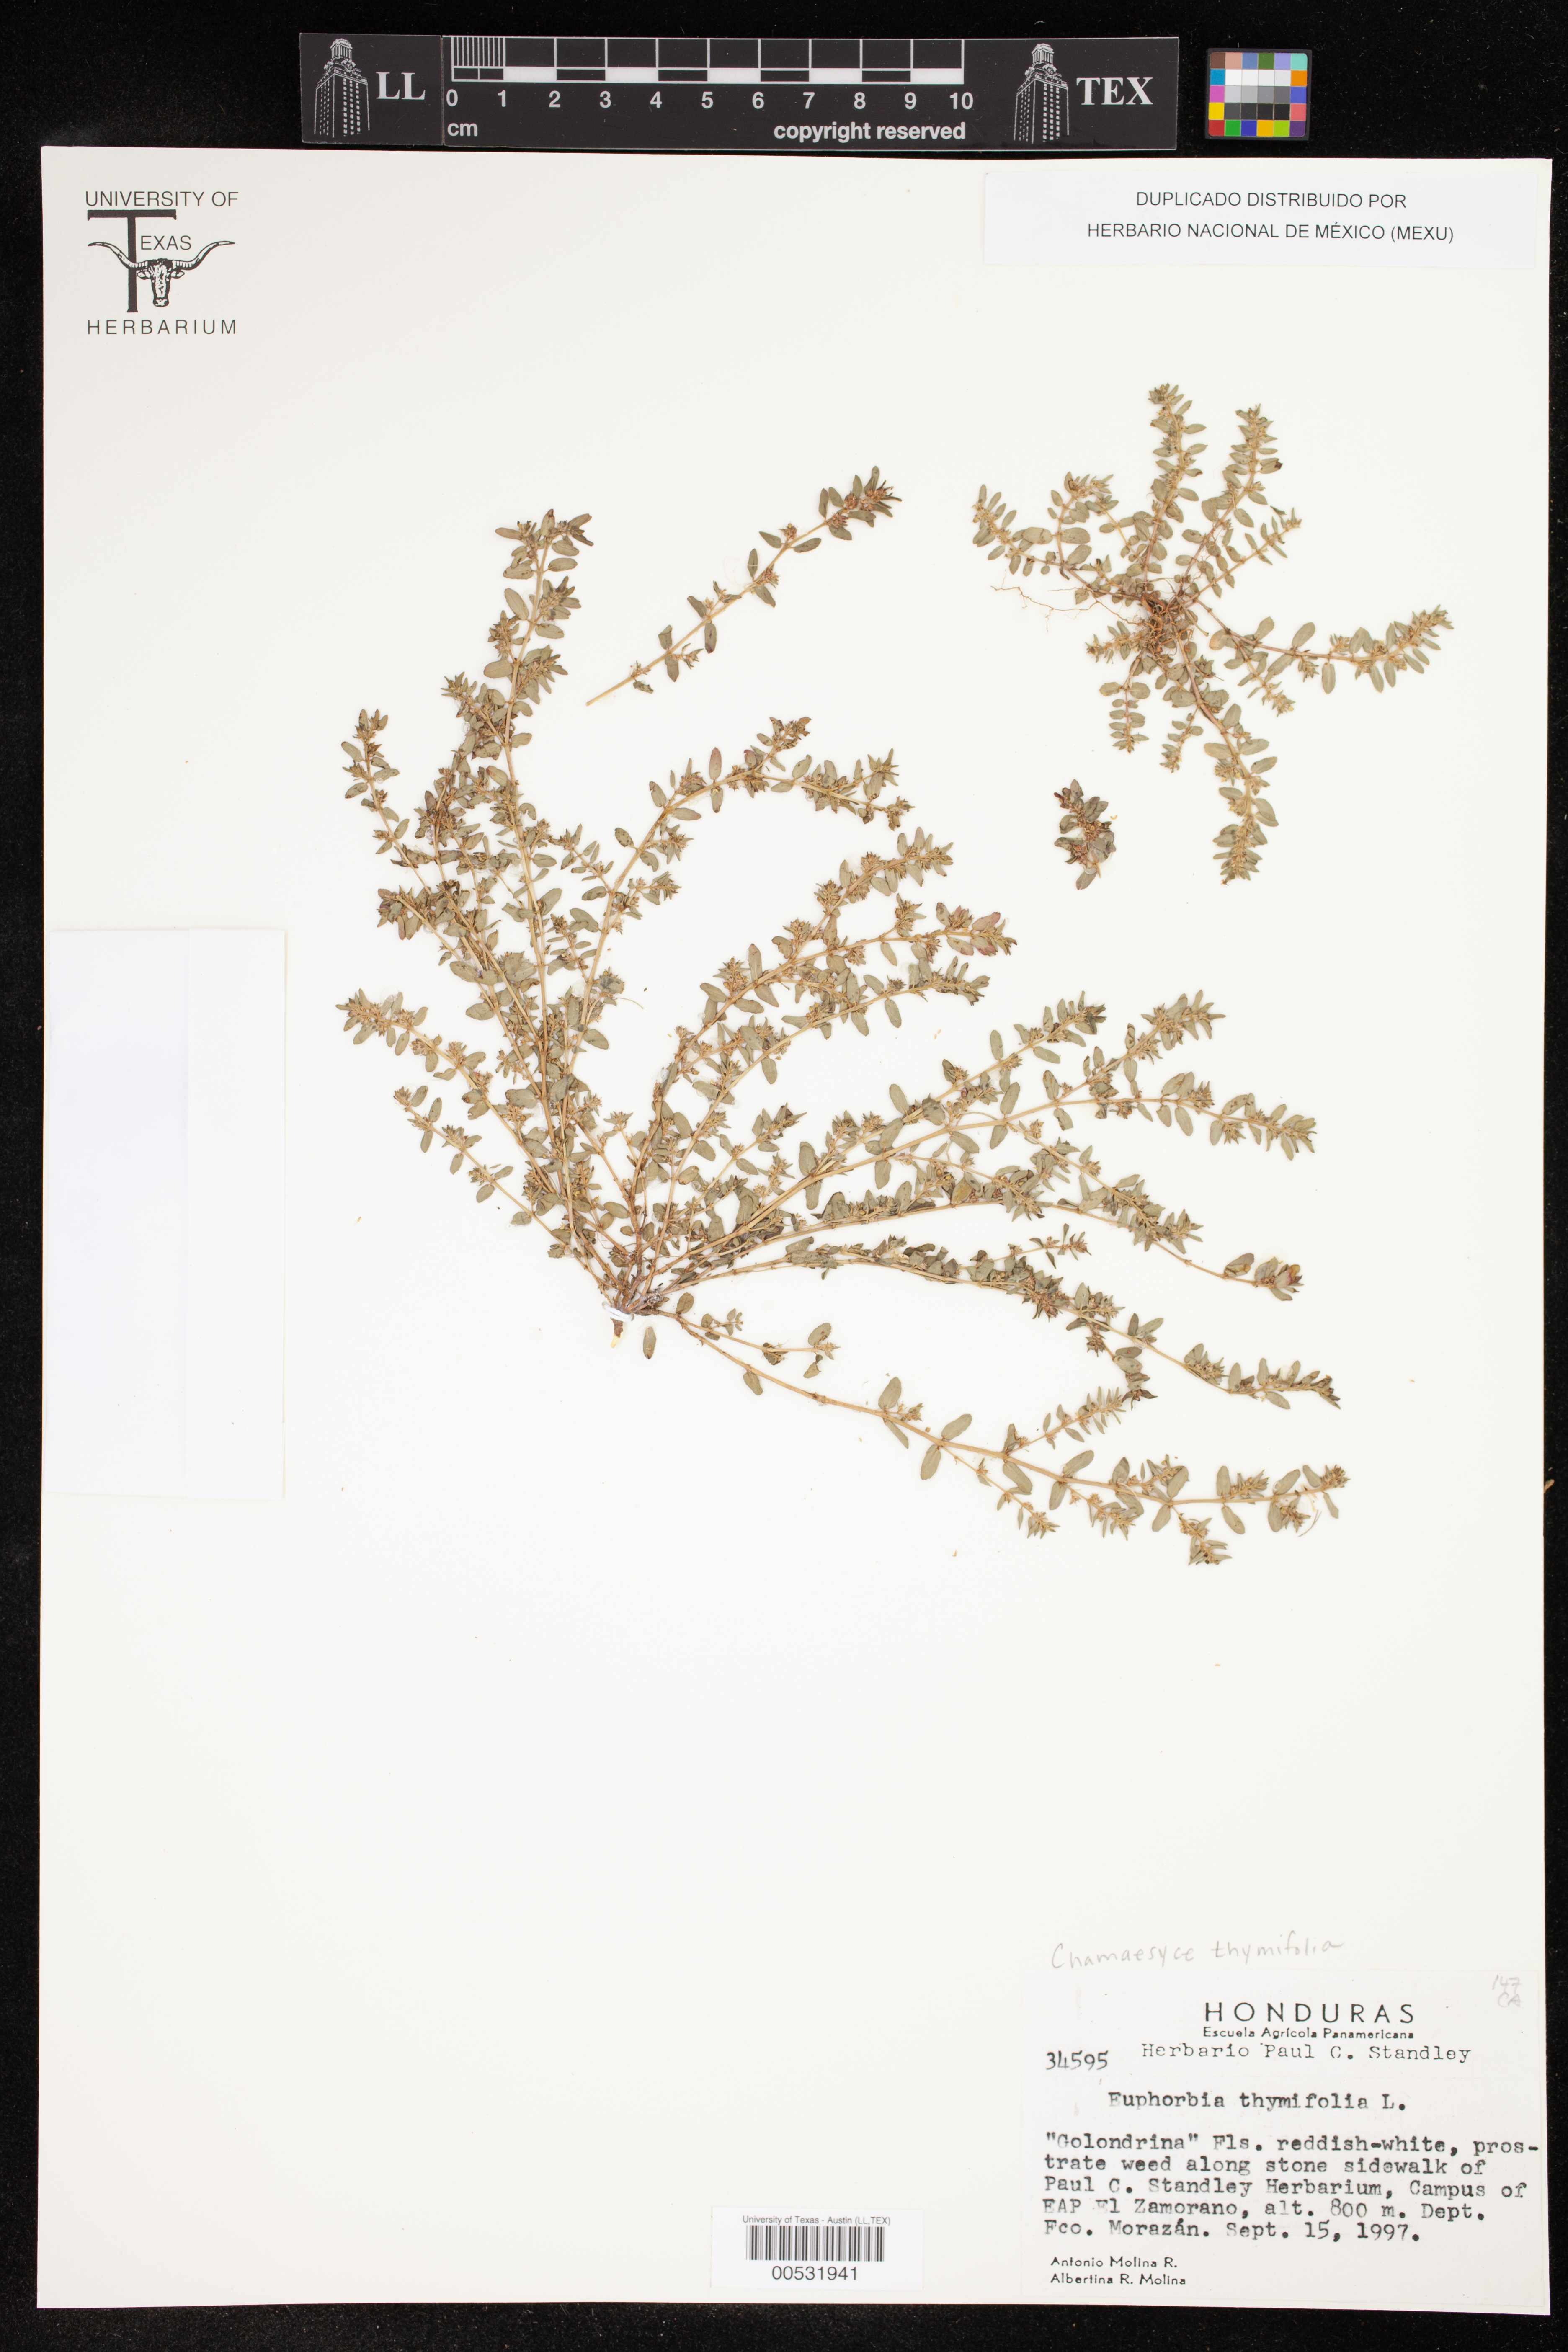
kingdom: Plantae
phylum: Tracheophyta
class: Magnoliopsida
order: Malpighiales
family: Euphorbiaceae
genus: Euphorbia
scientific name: Euphorbia thymifolia
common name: Gulf sandmat
